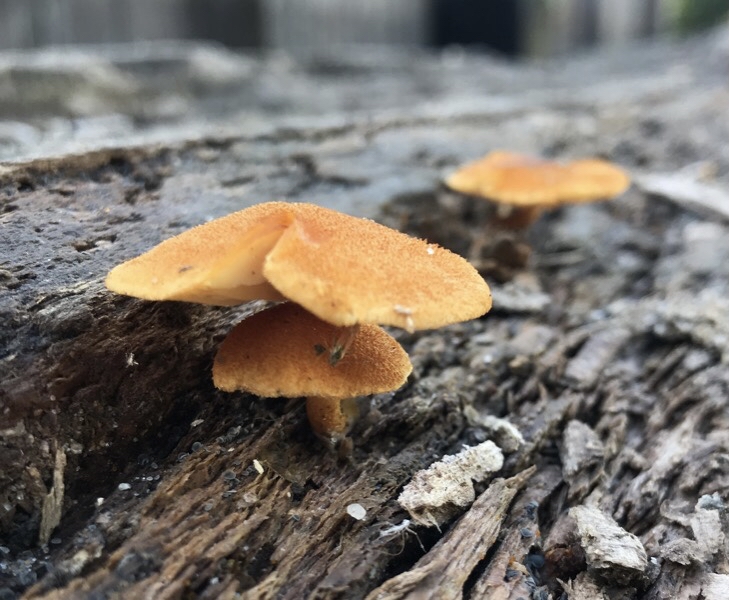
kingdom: Fungi
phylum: Basidiomycota
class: Agaricomycetes
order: Agaricales
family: Tubariaceae
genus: Flammulaster
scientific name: Flammulaster limulatus
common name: gylden grynskælhat
